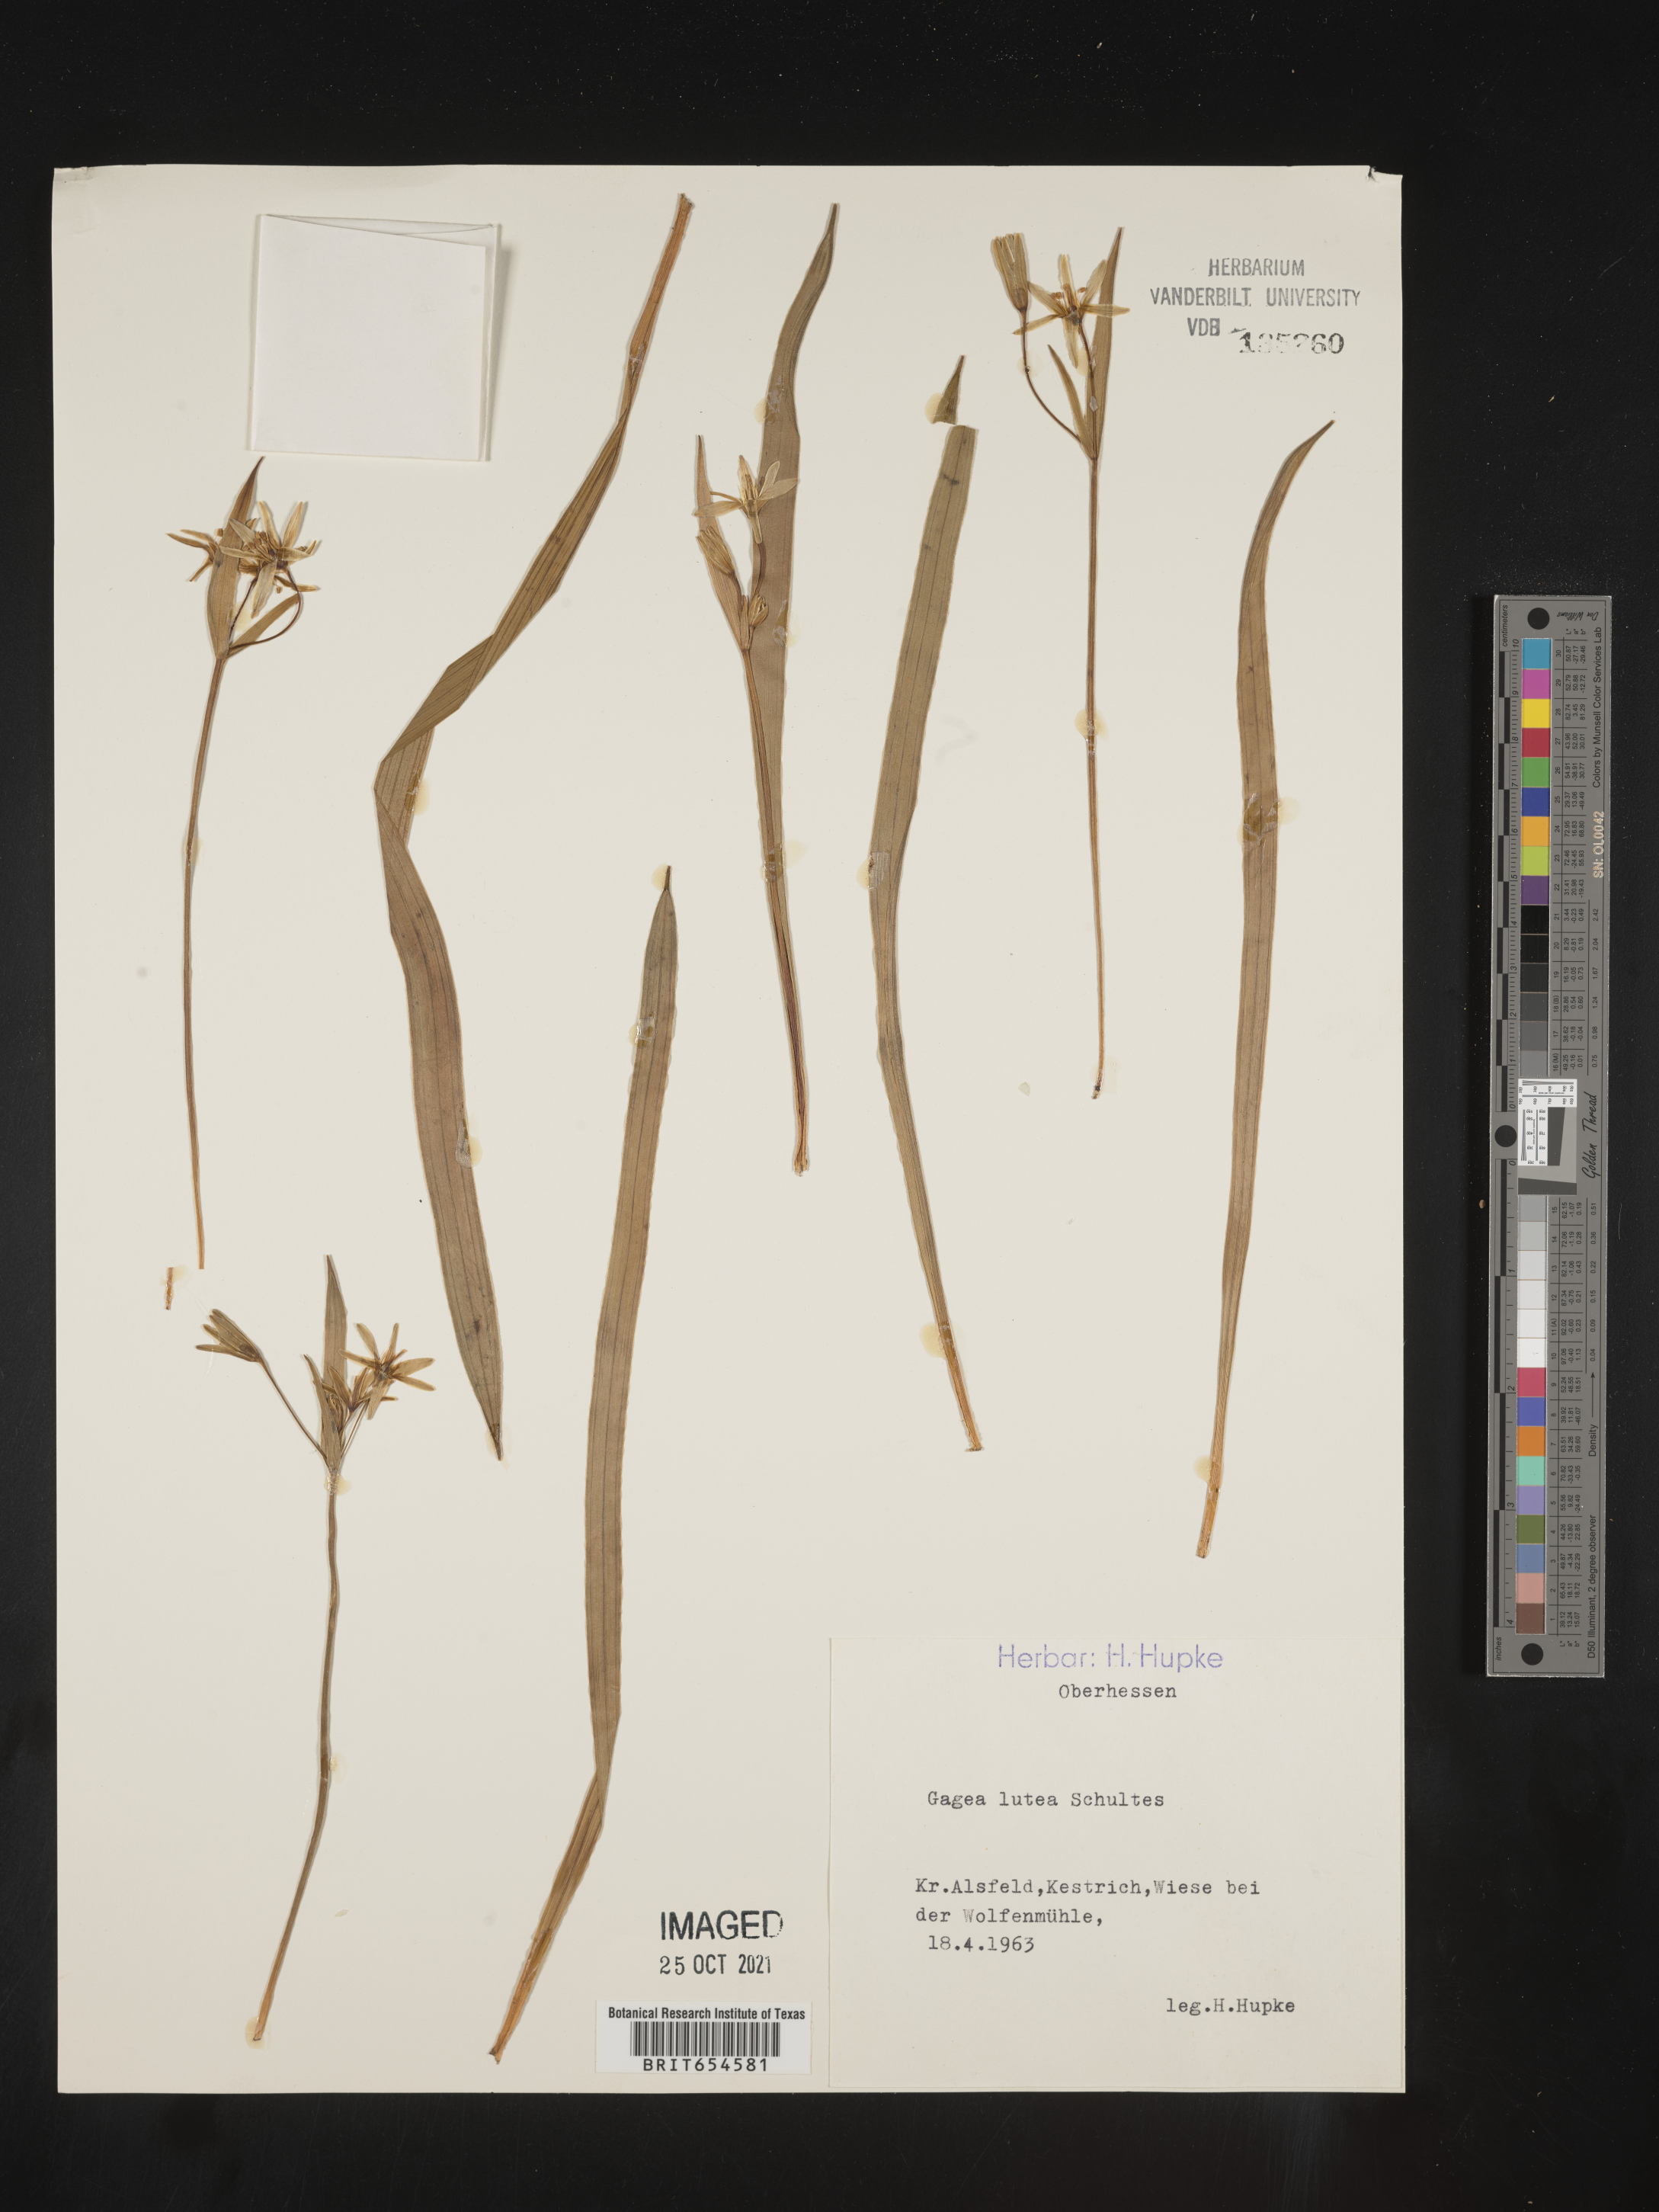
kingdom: Plantae
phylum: Tracheophyta
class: Liliopsida
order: Liliales
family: Liliaceae
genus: Gagea
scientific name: Gagea
